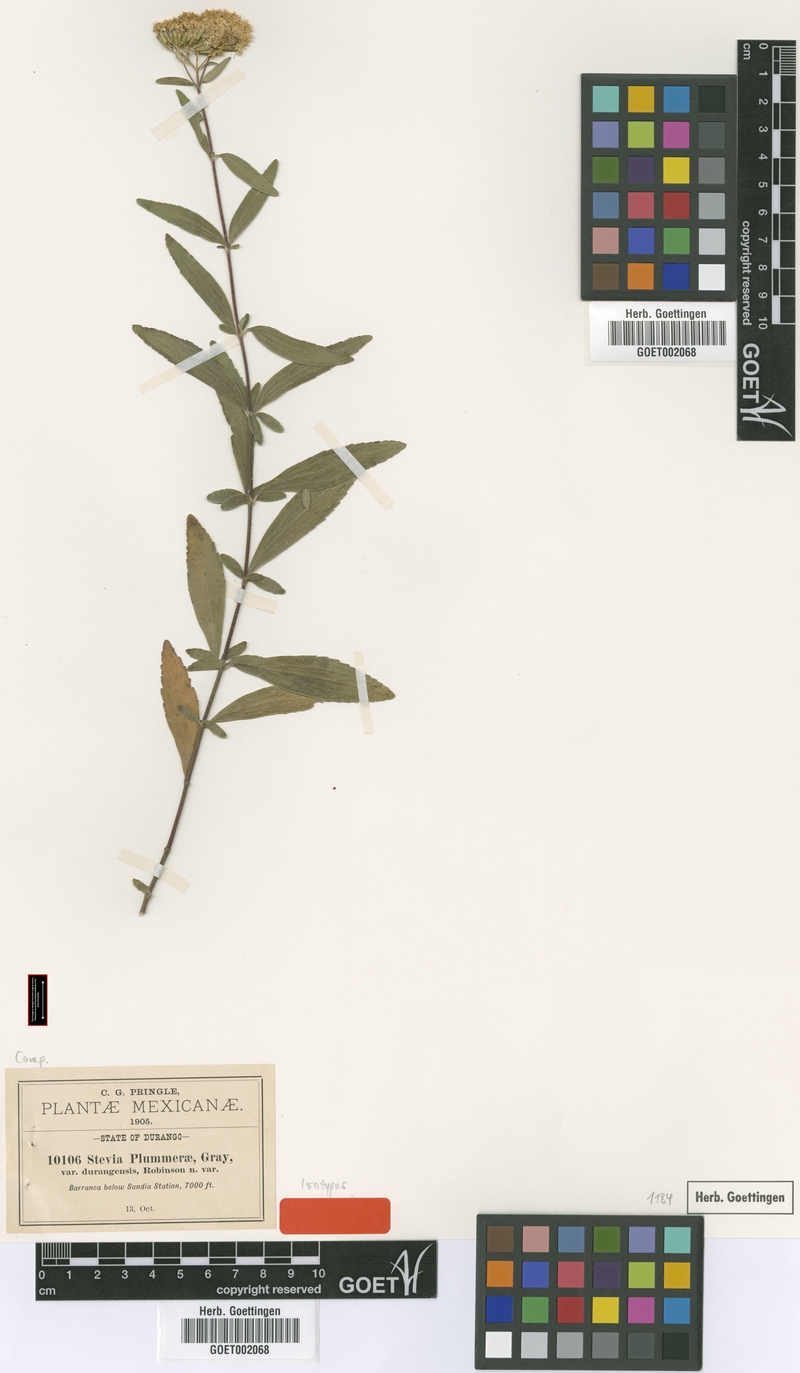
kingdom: Plantae
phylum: Tracheophyta
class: Magnoliopsida
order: Asterales
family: Asteraceae
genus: Stevia
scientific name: Stevia plummerae
